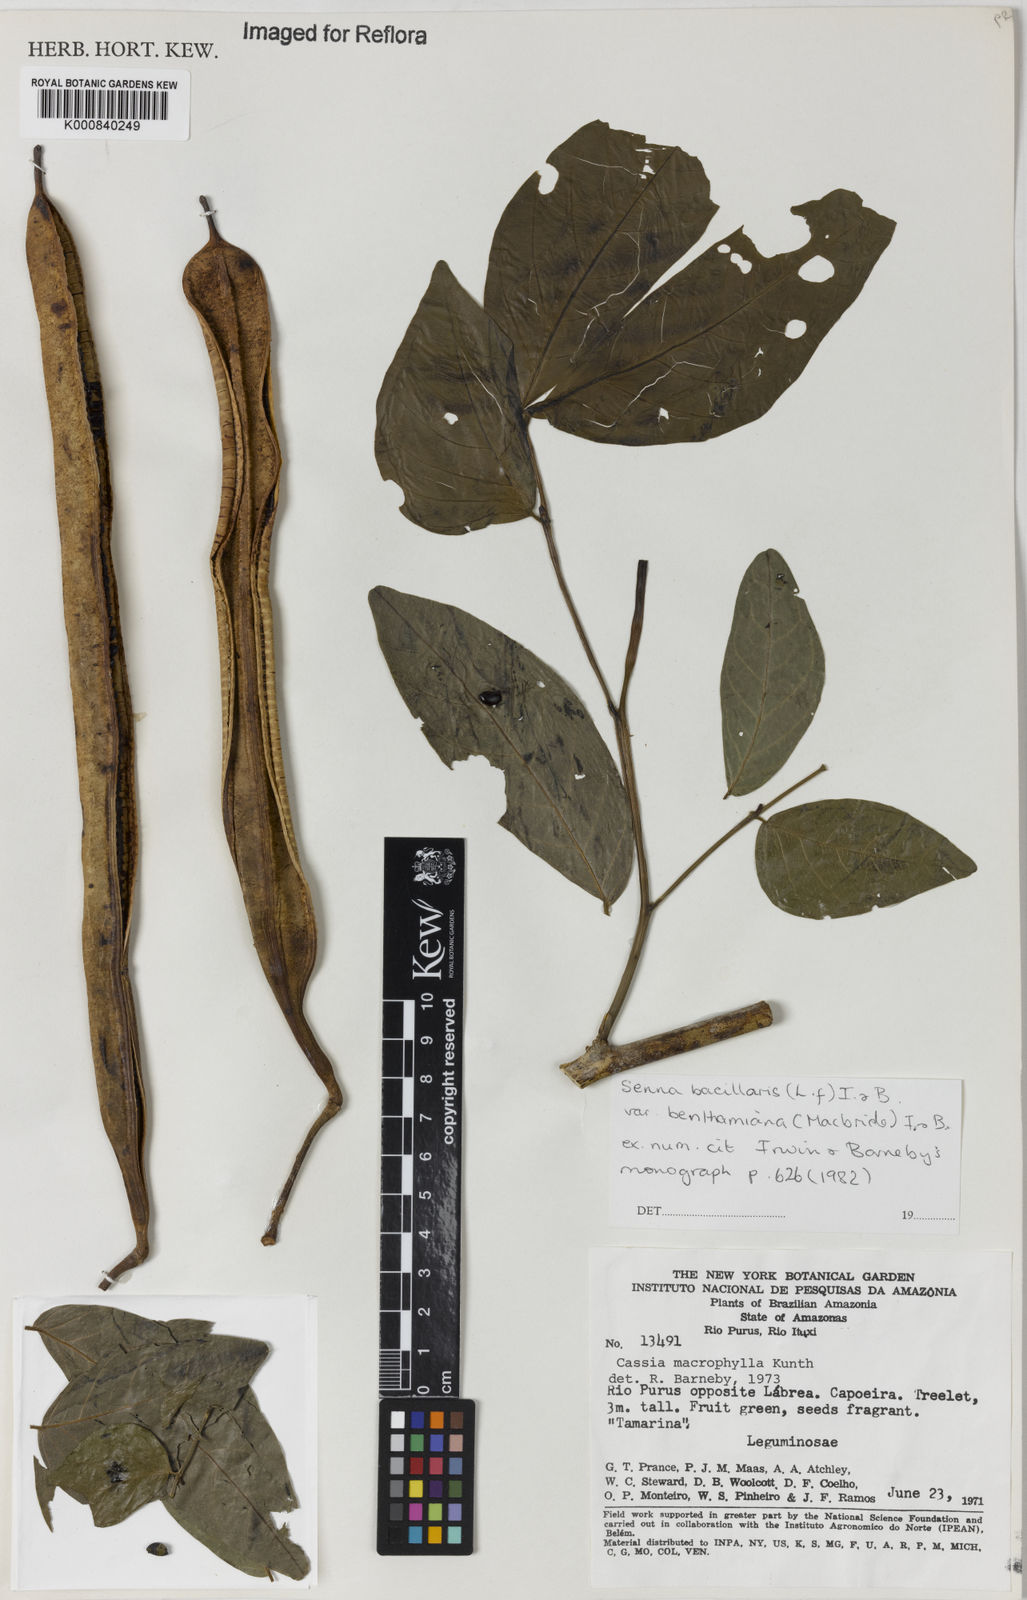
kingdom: Plantae
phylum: Tracheophyta
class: Magnoliopsida
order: Fabales
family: Fabaceae
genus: Senna
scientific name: Senna bacillaris
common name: West indian showertree
